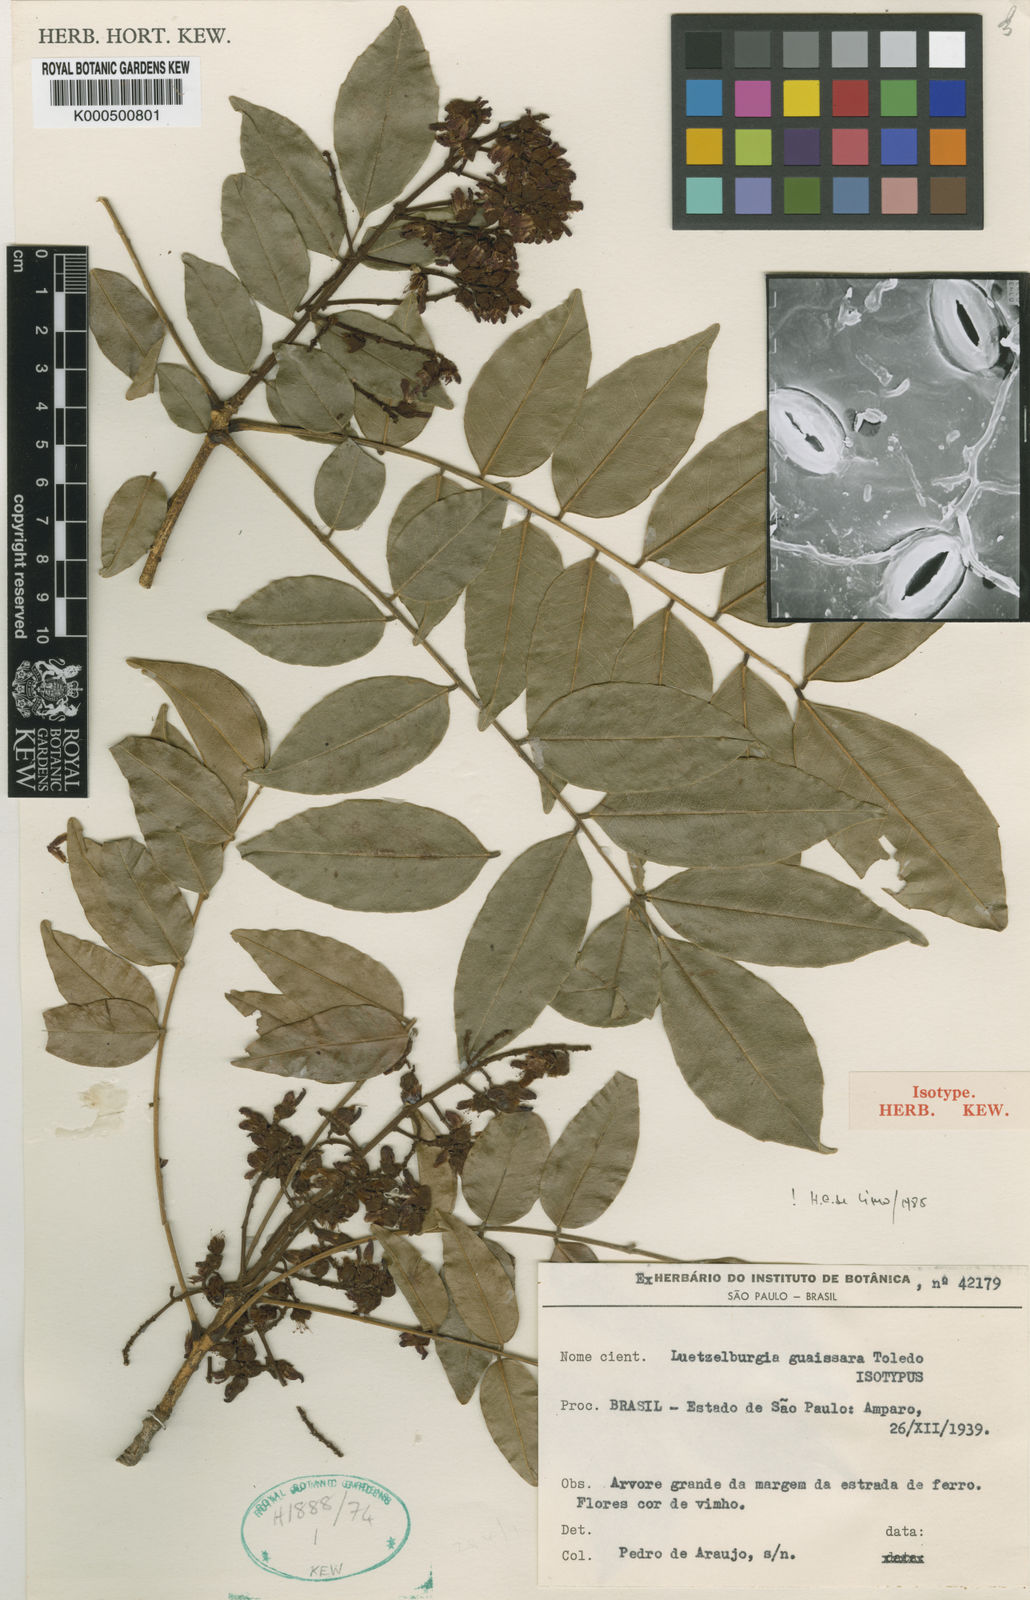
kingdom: Plantae
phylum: Tracheophyta
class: Magnoliopsida
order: Fabales
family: Fabaceae
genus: Luetzelburgia
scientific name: Luetzelburgia guaissara
